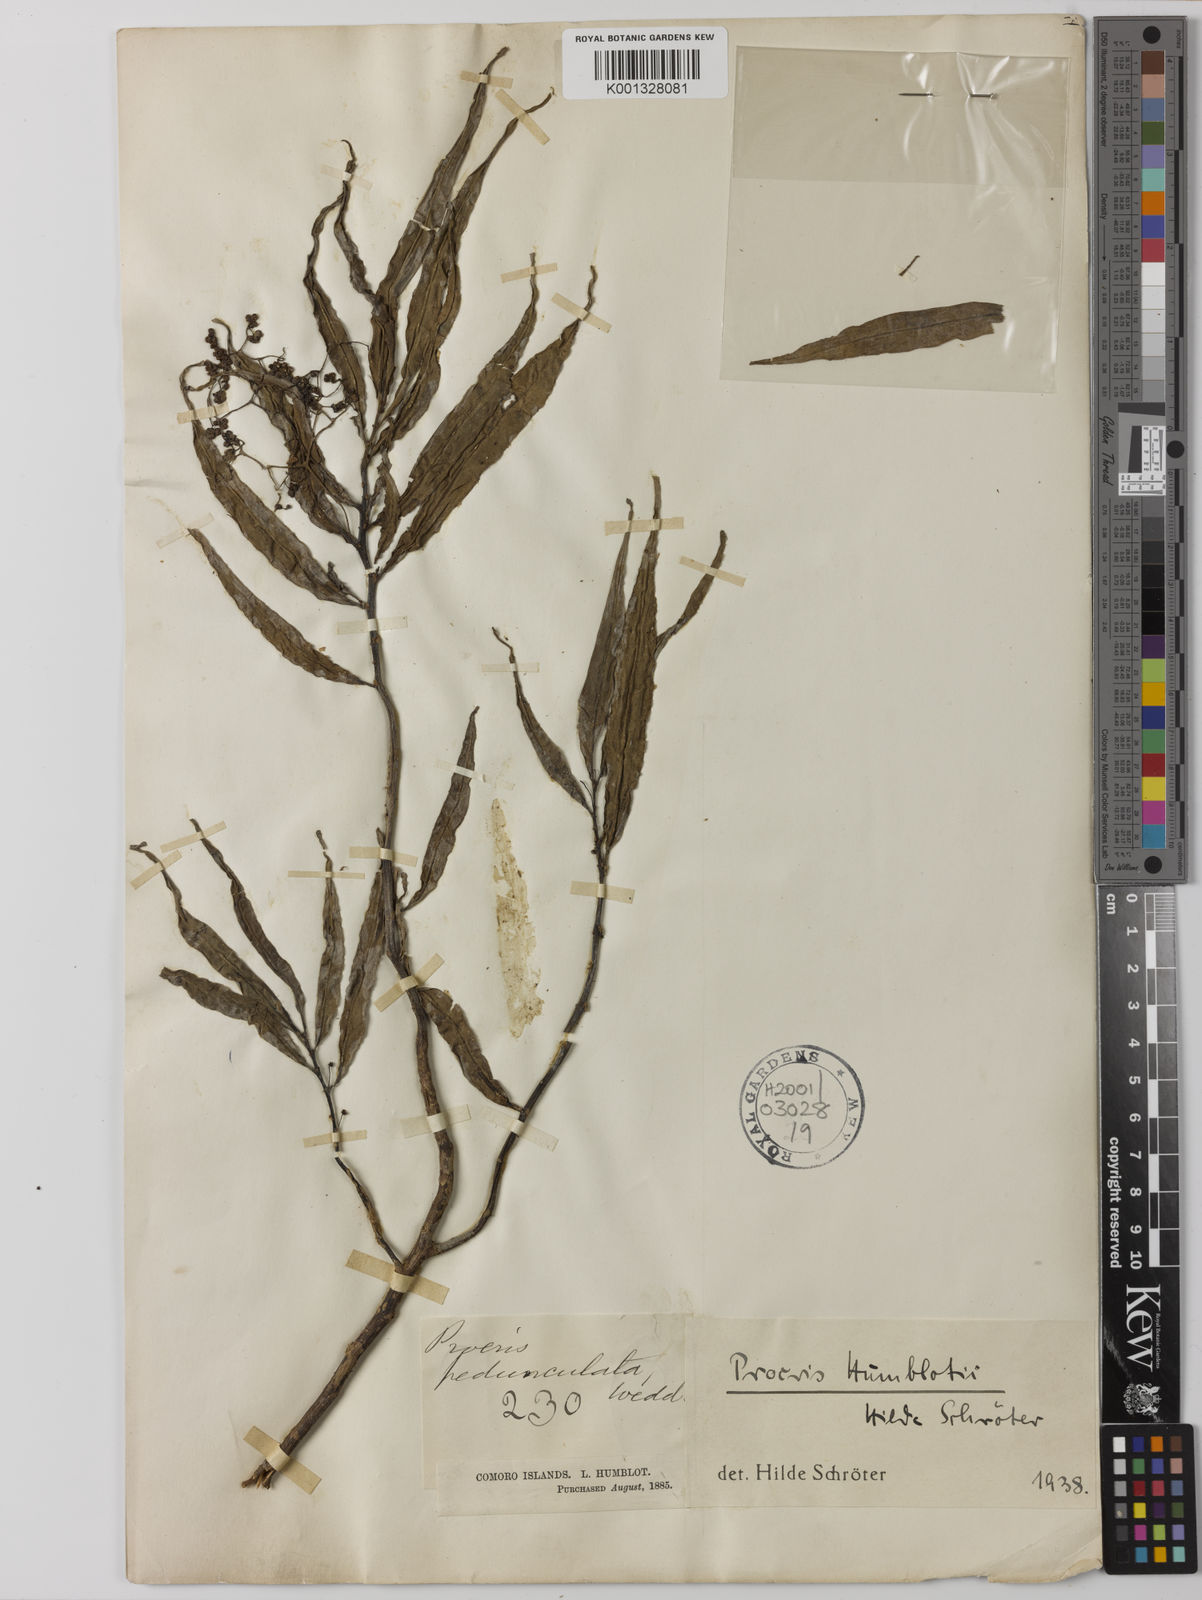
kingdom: Plantae
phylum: Tracheophyta
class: Magnoliopsida
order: Rosales
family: Urticaceae
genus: Procris
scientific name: Procris pedunculata
